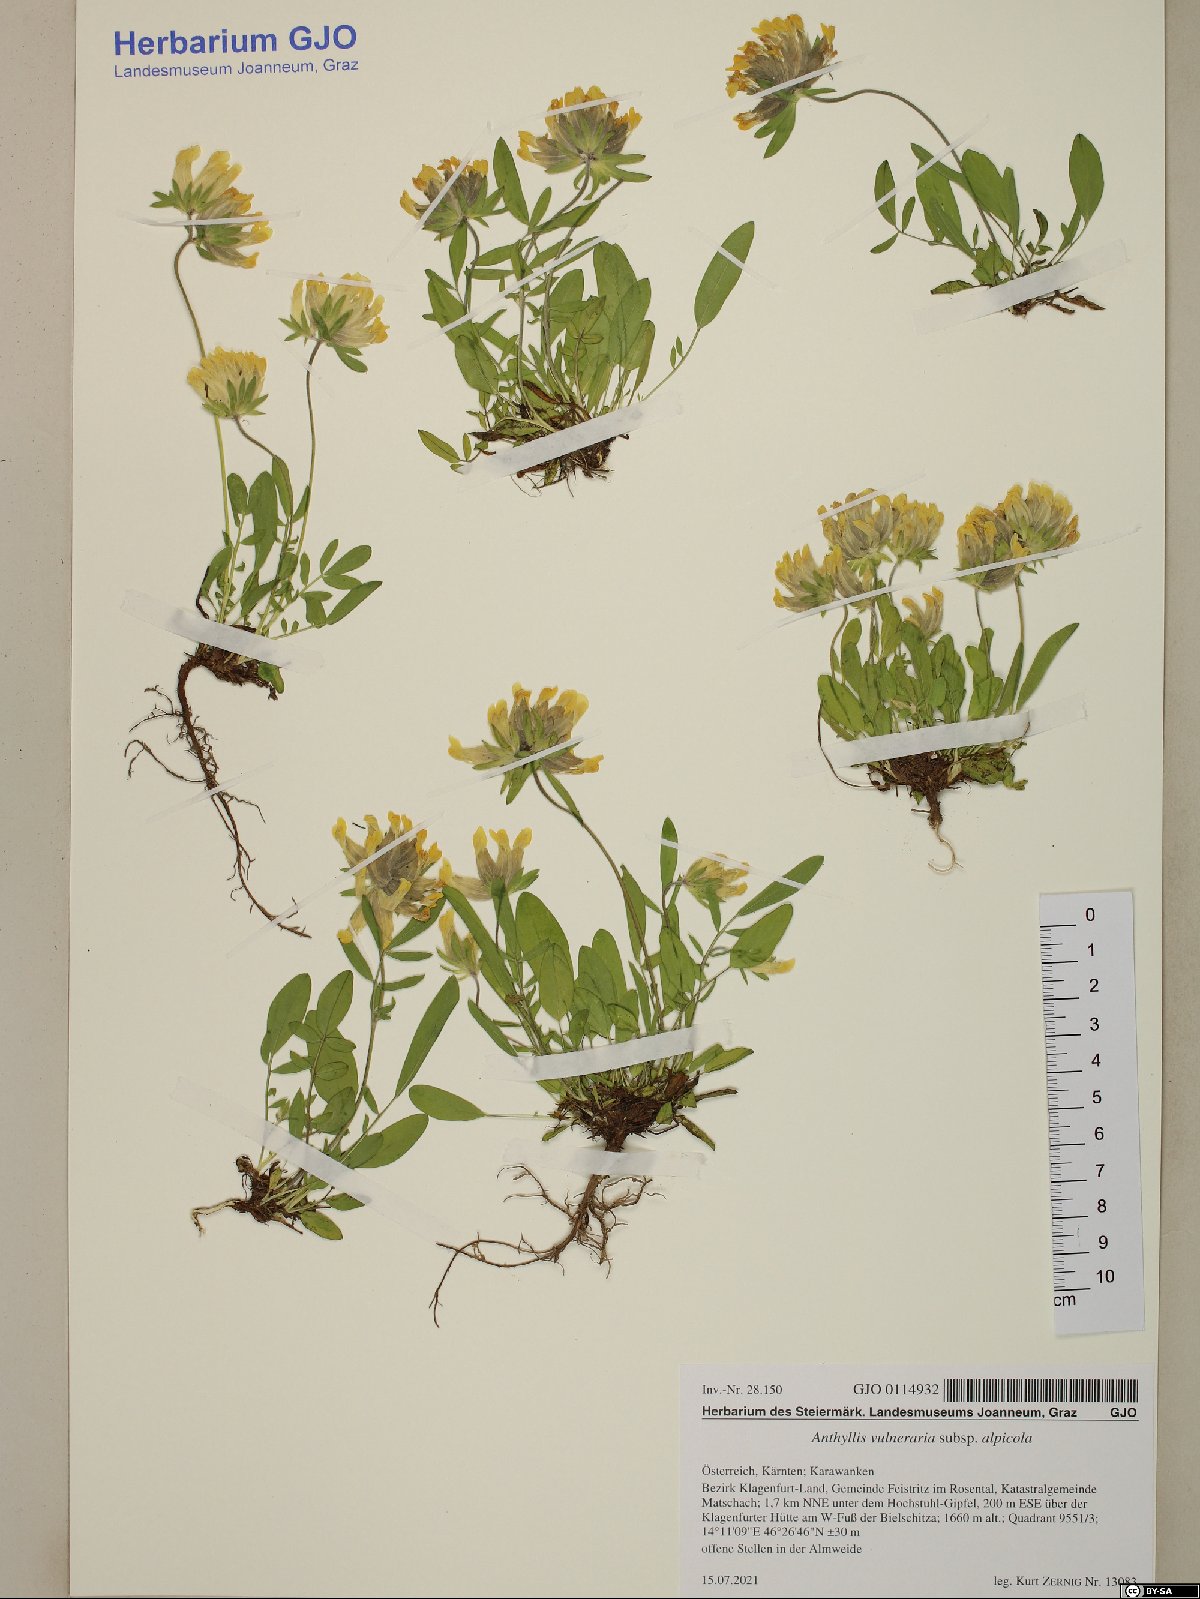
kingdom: Plantae
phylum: Tracheophyta
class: Magnoliopsida
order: Fabales
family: Fabaceae
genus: Anthyllis
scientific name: Anthyllis vulneraria
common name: Kidney vetch
